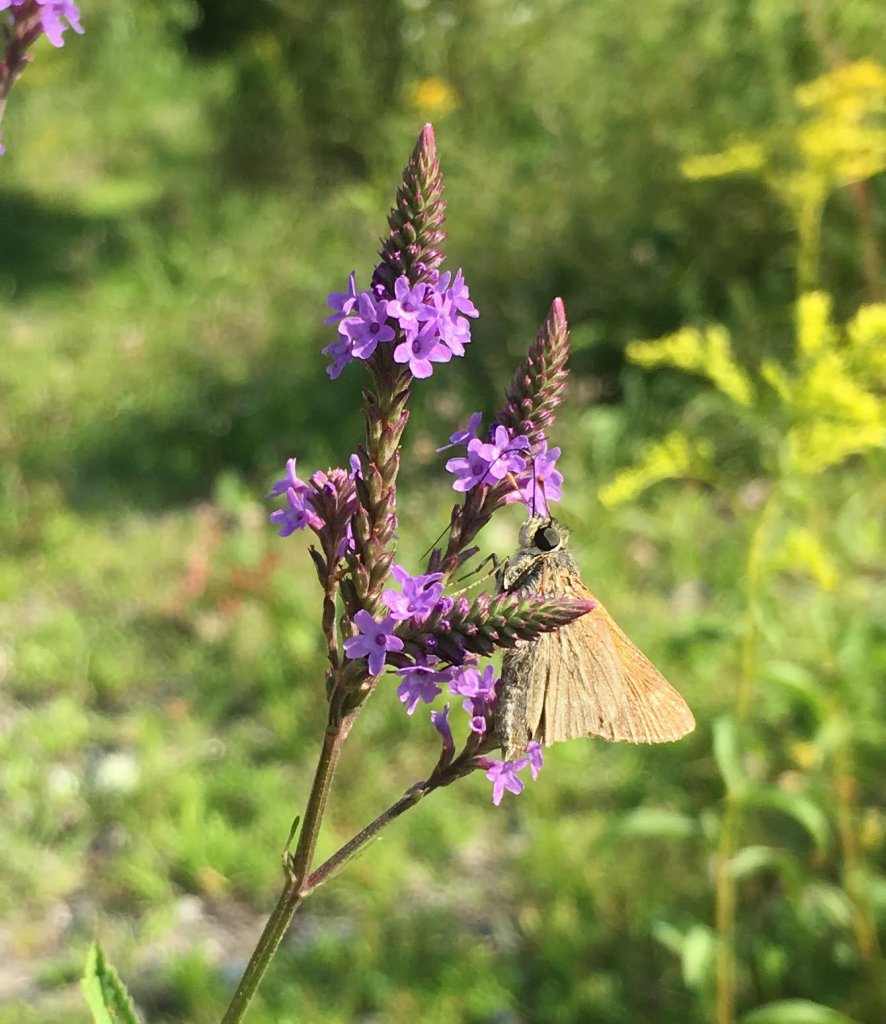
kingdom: Animalia
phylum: Arthropoda
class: Insecta
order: Lepidoptera
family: Hesperiidae
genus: Polites
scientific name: Polites themistocles
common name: Tawny-edged Skipper
